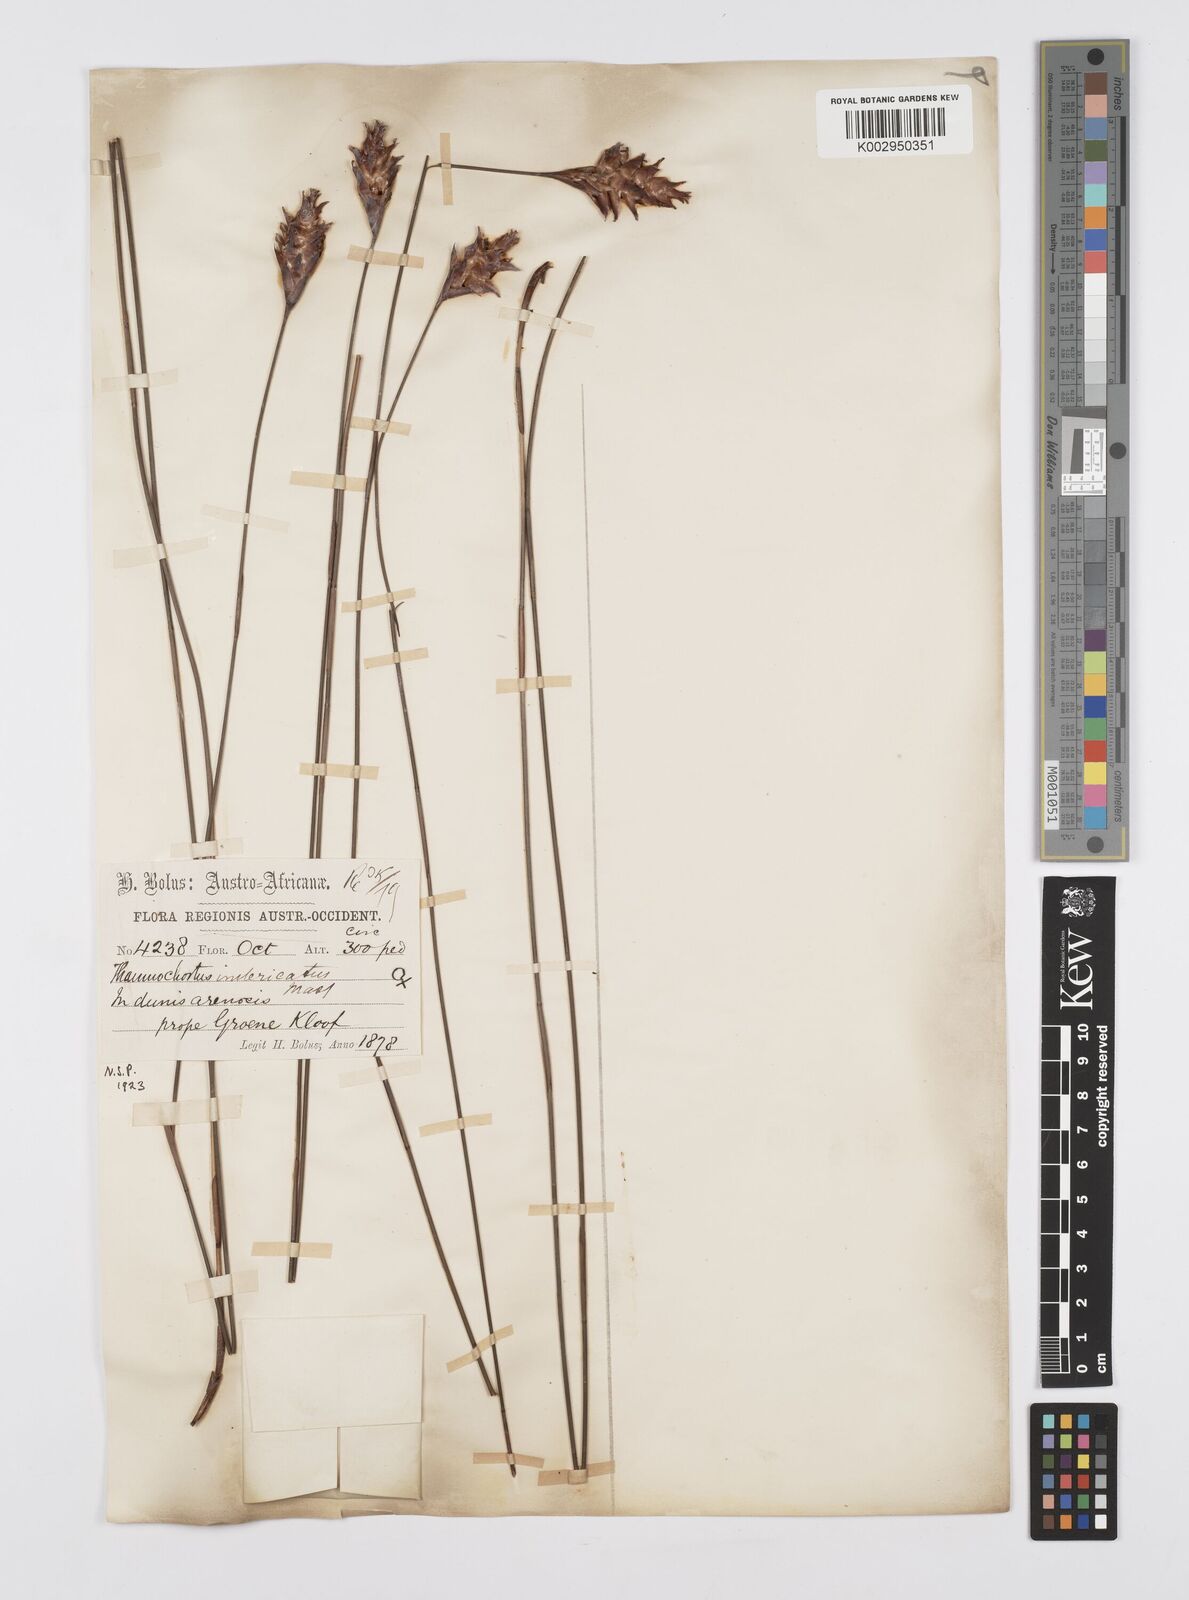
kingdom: Plantae
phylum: Tracheophyta
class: Liliopsida
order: Poales
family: Restionaceae
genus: Staberoha
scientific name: Staberoha distachyos
